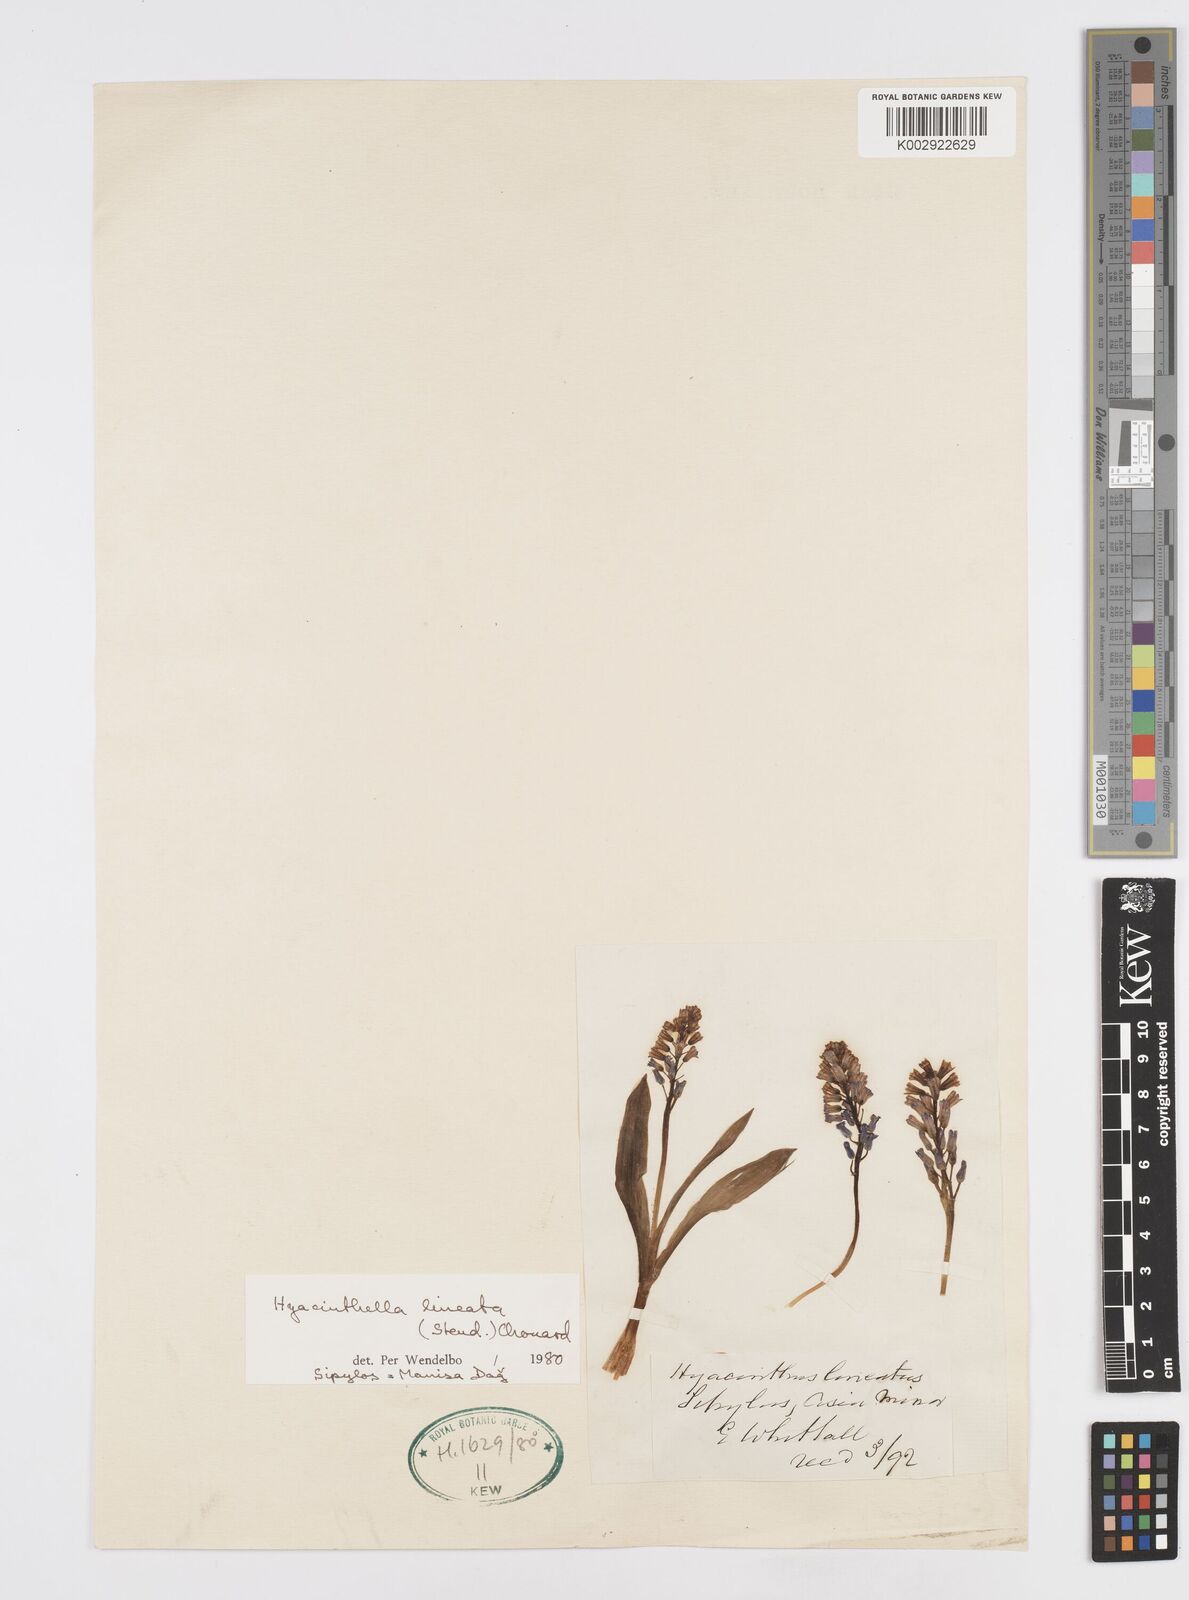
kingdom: Plantae
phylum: Tracheophyta
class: Liliopsida
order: Asparagales
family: Asparagaceae
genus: Hyacinthella
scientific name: Hyacinthella lineata
